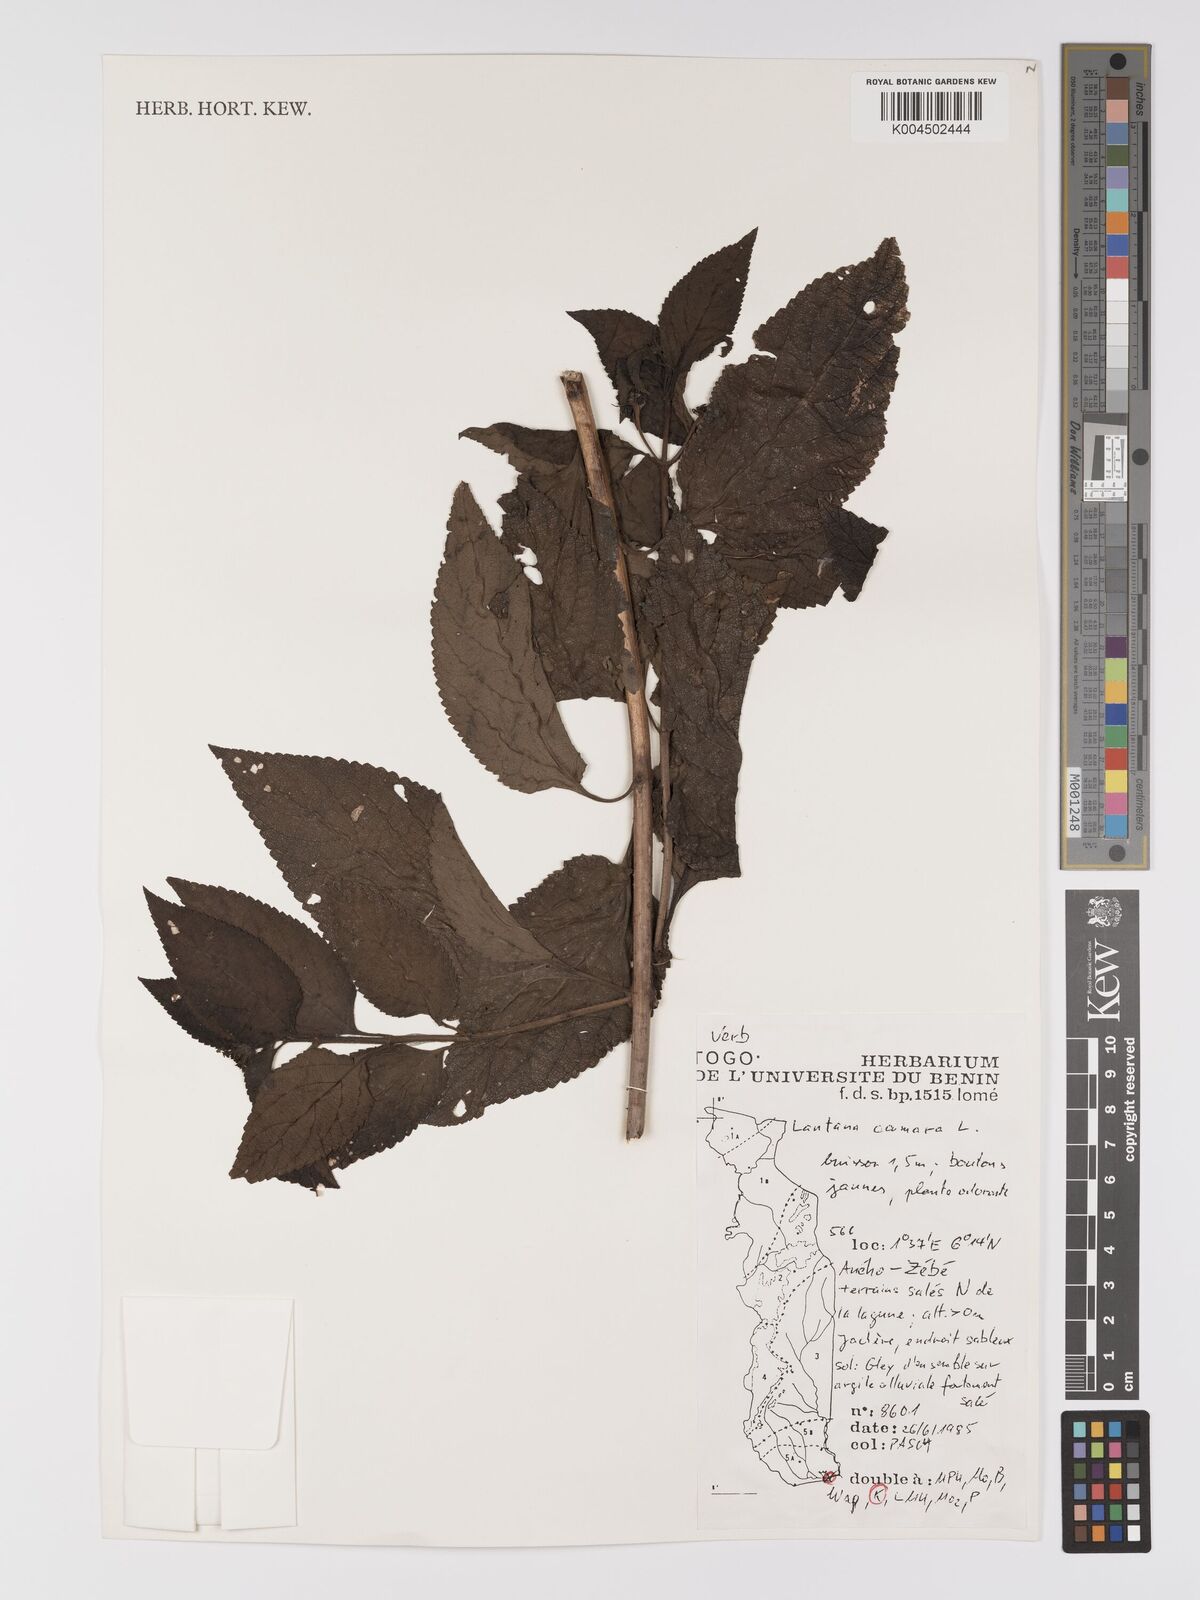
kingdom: Plantae
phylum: Tracheophyta
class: Magnoliopsida
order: Lamiales
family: Verbenaceae
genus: Lantana
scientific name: Lantana camara
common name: Lantana
